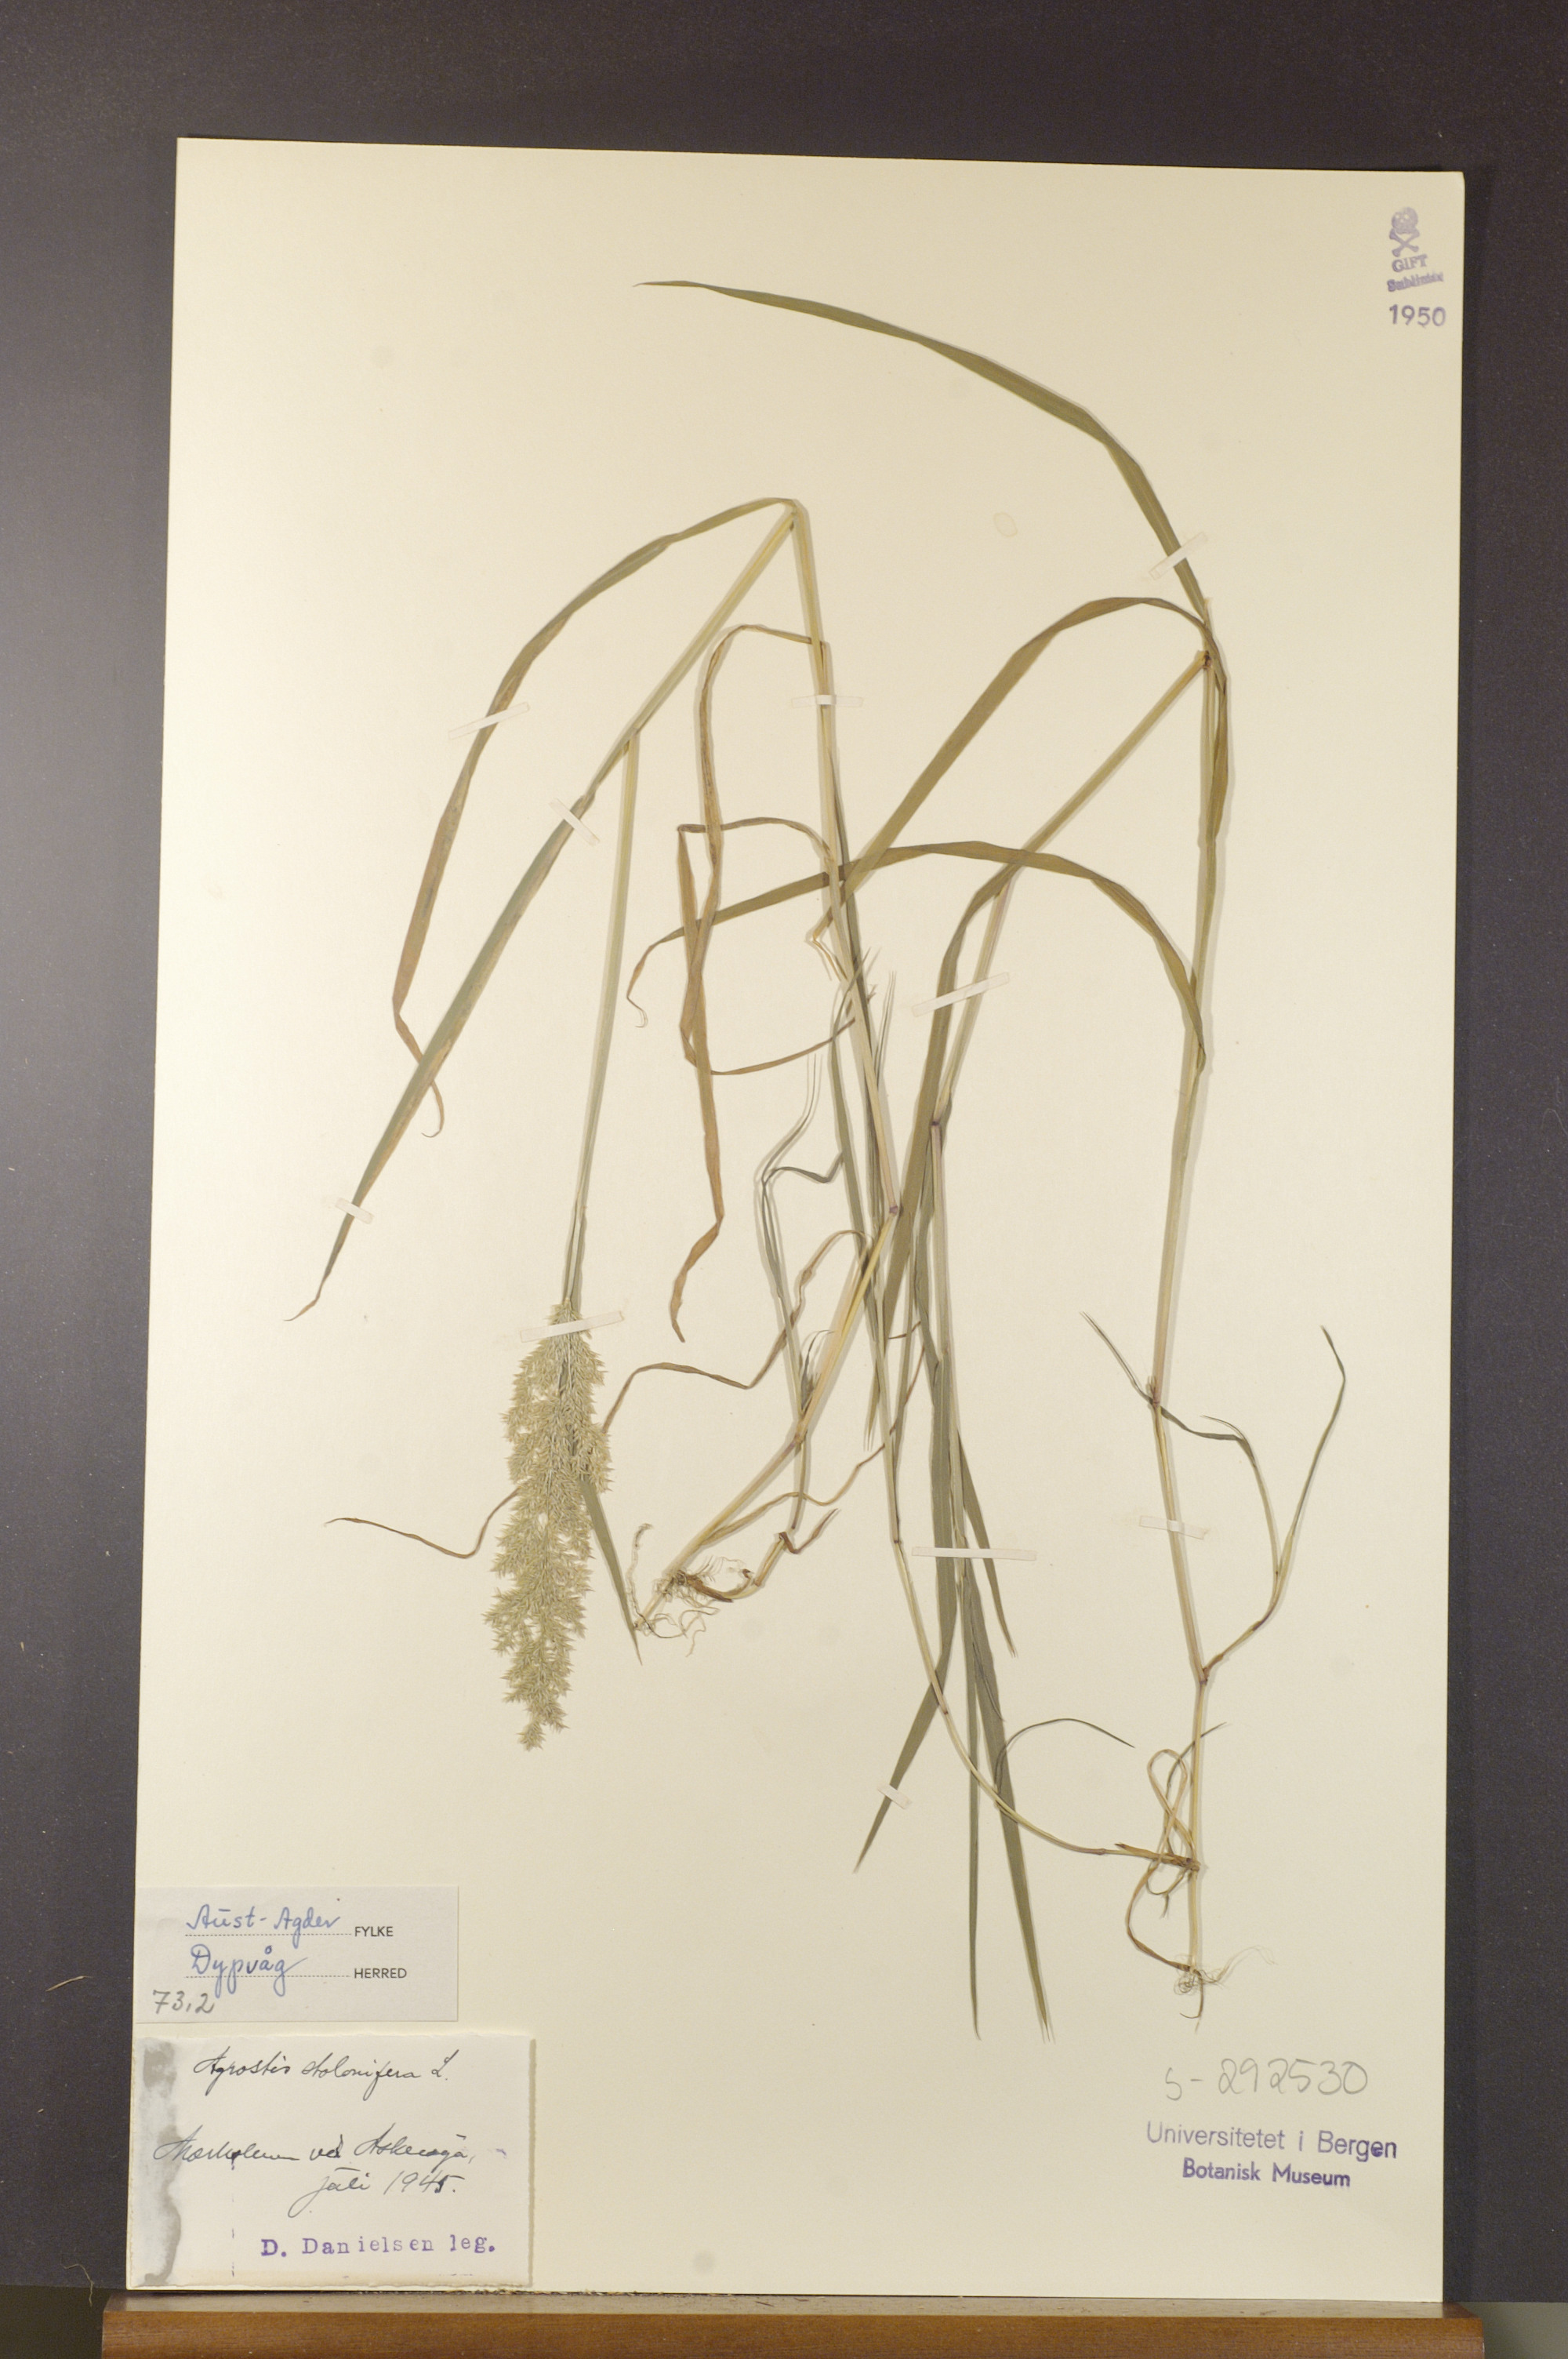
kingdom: Plantae
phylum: Tracheophyta
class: Liliopsida
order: Poales
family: Poaceae
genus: Agrostis
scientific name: Agrostis stolonifera
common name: Creeping bentgrass
